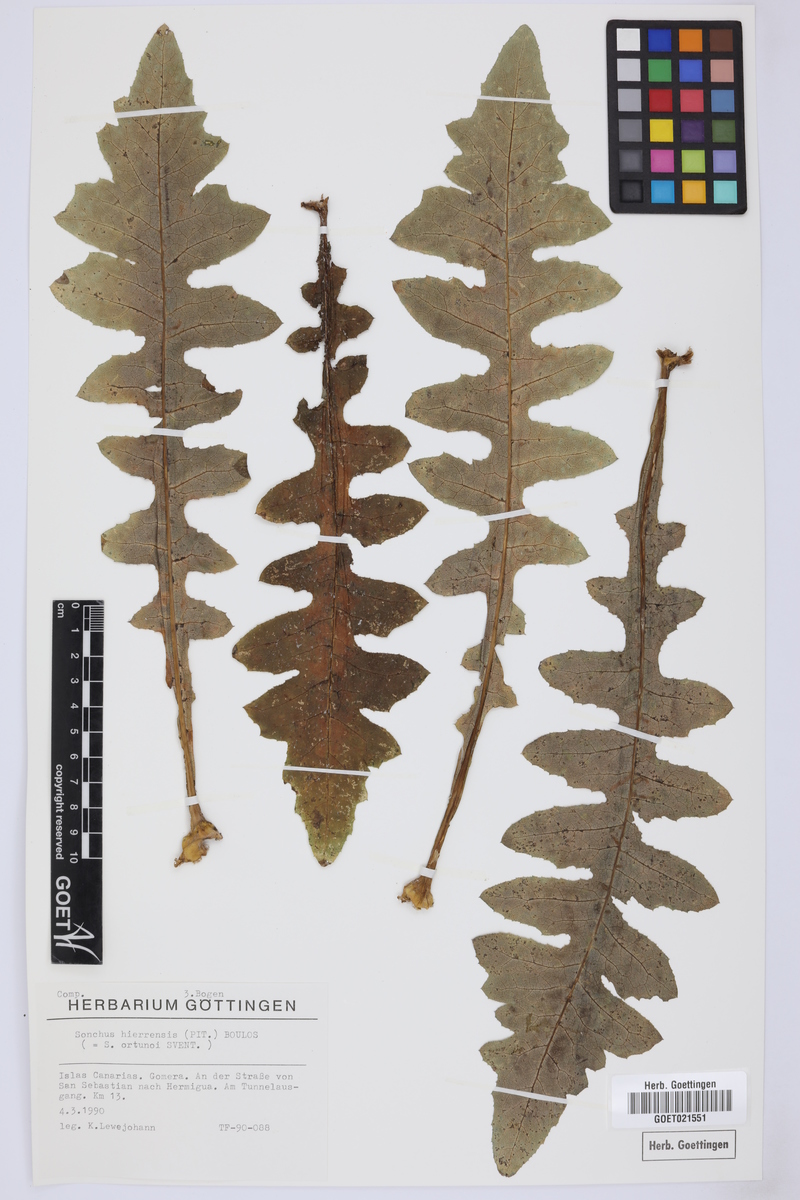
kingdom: Plantae
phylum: Tracheophyta
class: Magnoliopsida
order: Asterales
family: Asteraceae
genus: Sonchus
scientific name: Sonchus hierrensis
